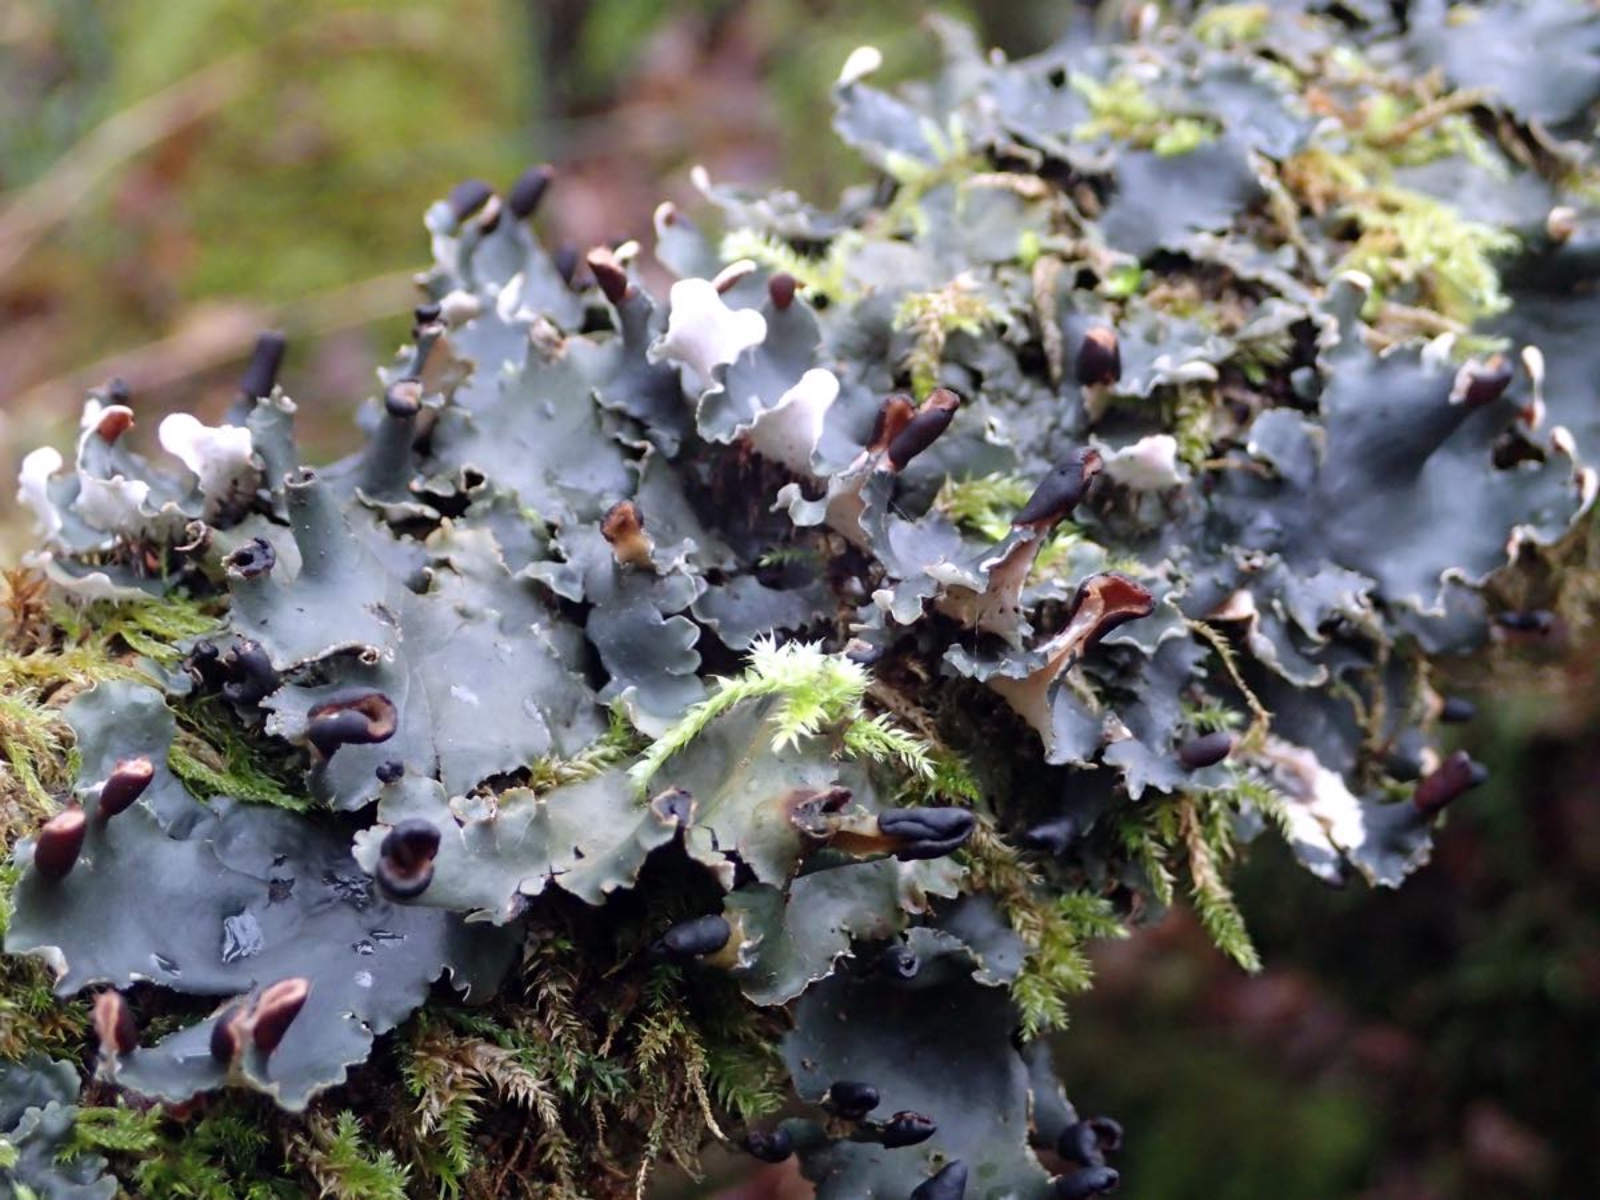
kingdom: Fungi
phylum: Ascomycota
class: Lecanoromycetes
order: Peltigerales
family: Peltigeraceae
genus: Peltigera
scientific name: Peltigera neckeri
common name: glinsende skjoldlav
